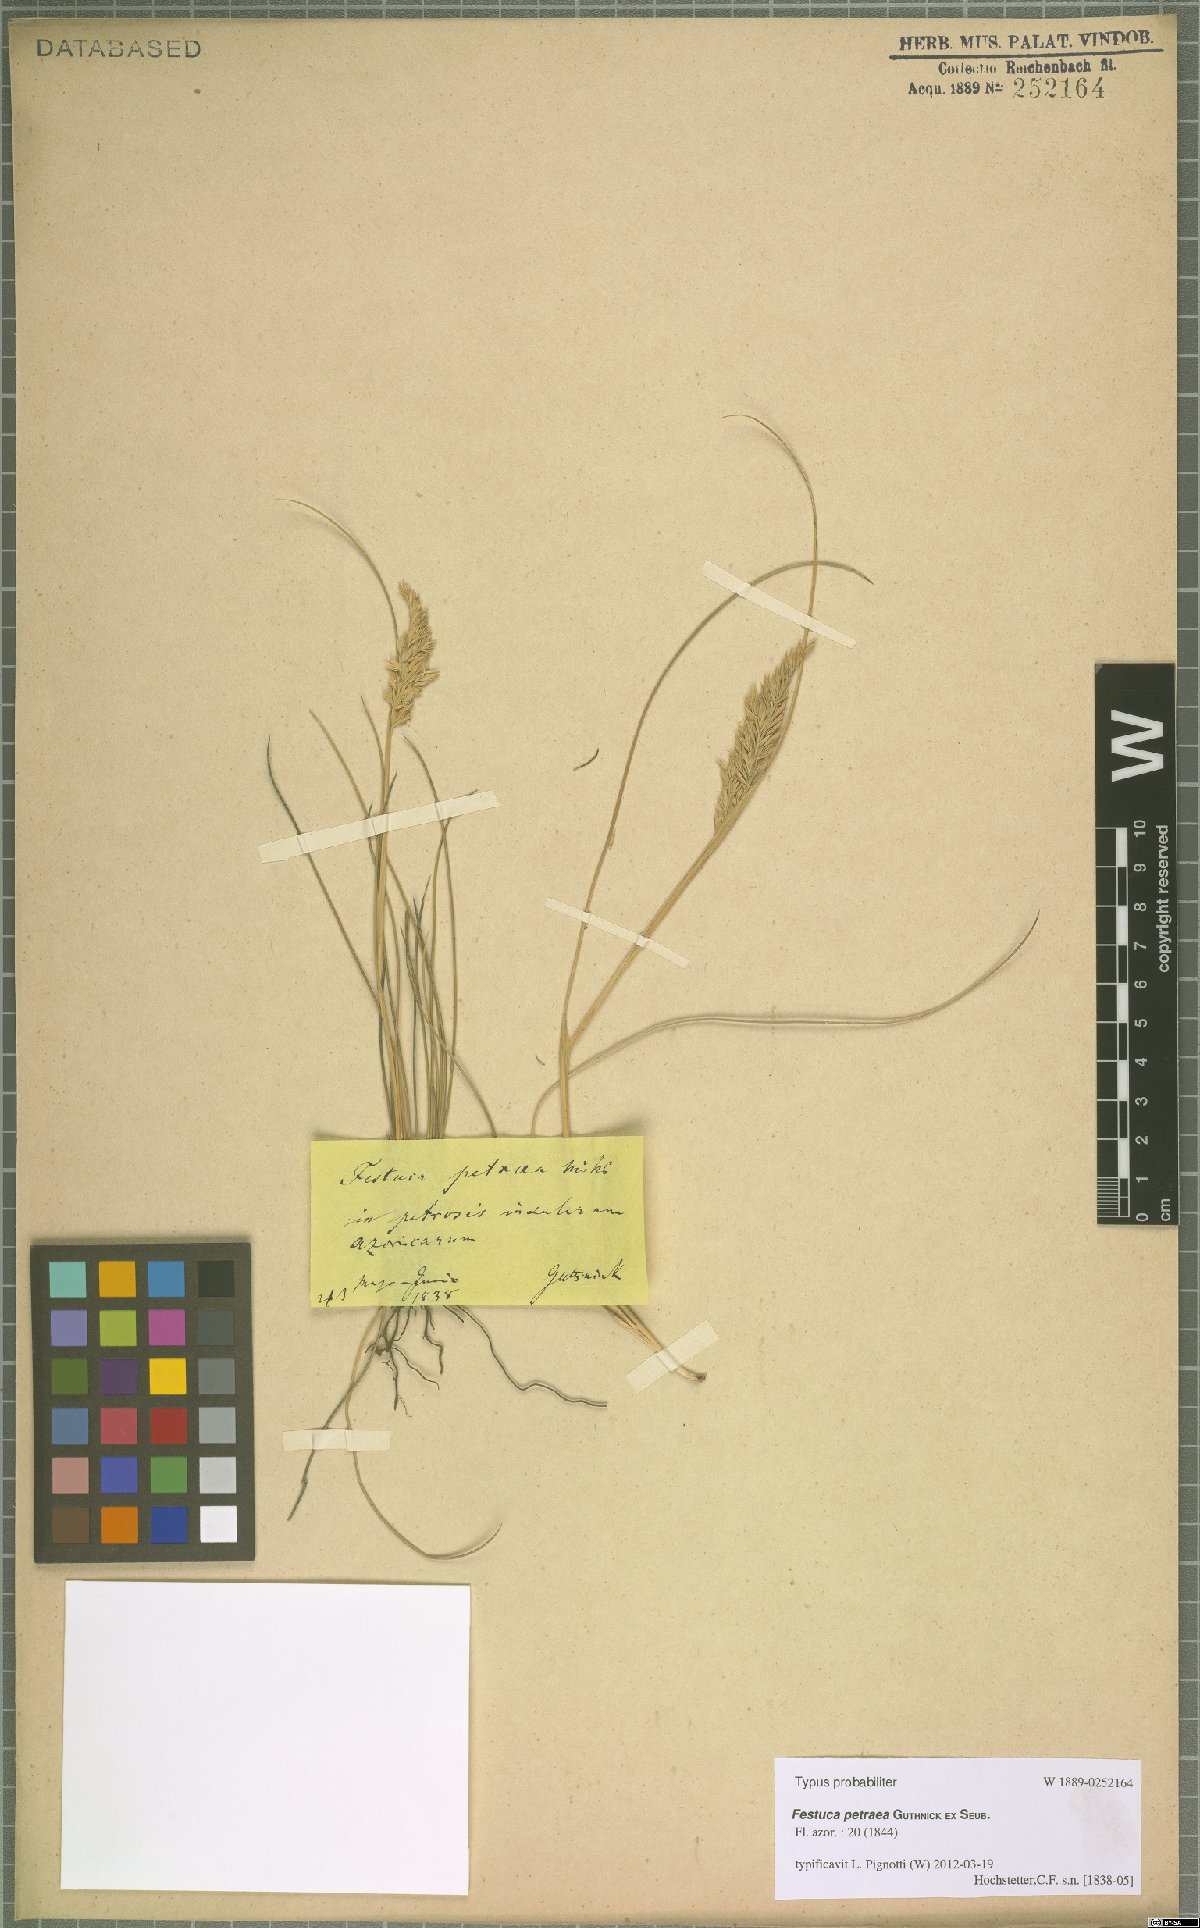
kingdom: Plantae
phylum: Tracheophyta
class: Liliopsida
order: Poales
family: Poaceae
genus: Festuca
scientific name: Festuca petraea
